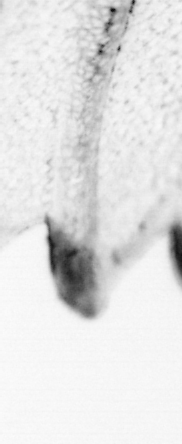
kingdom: Animalia
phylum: Chordata
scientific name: Chordata
